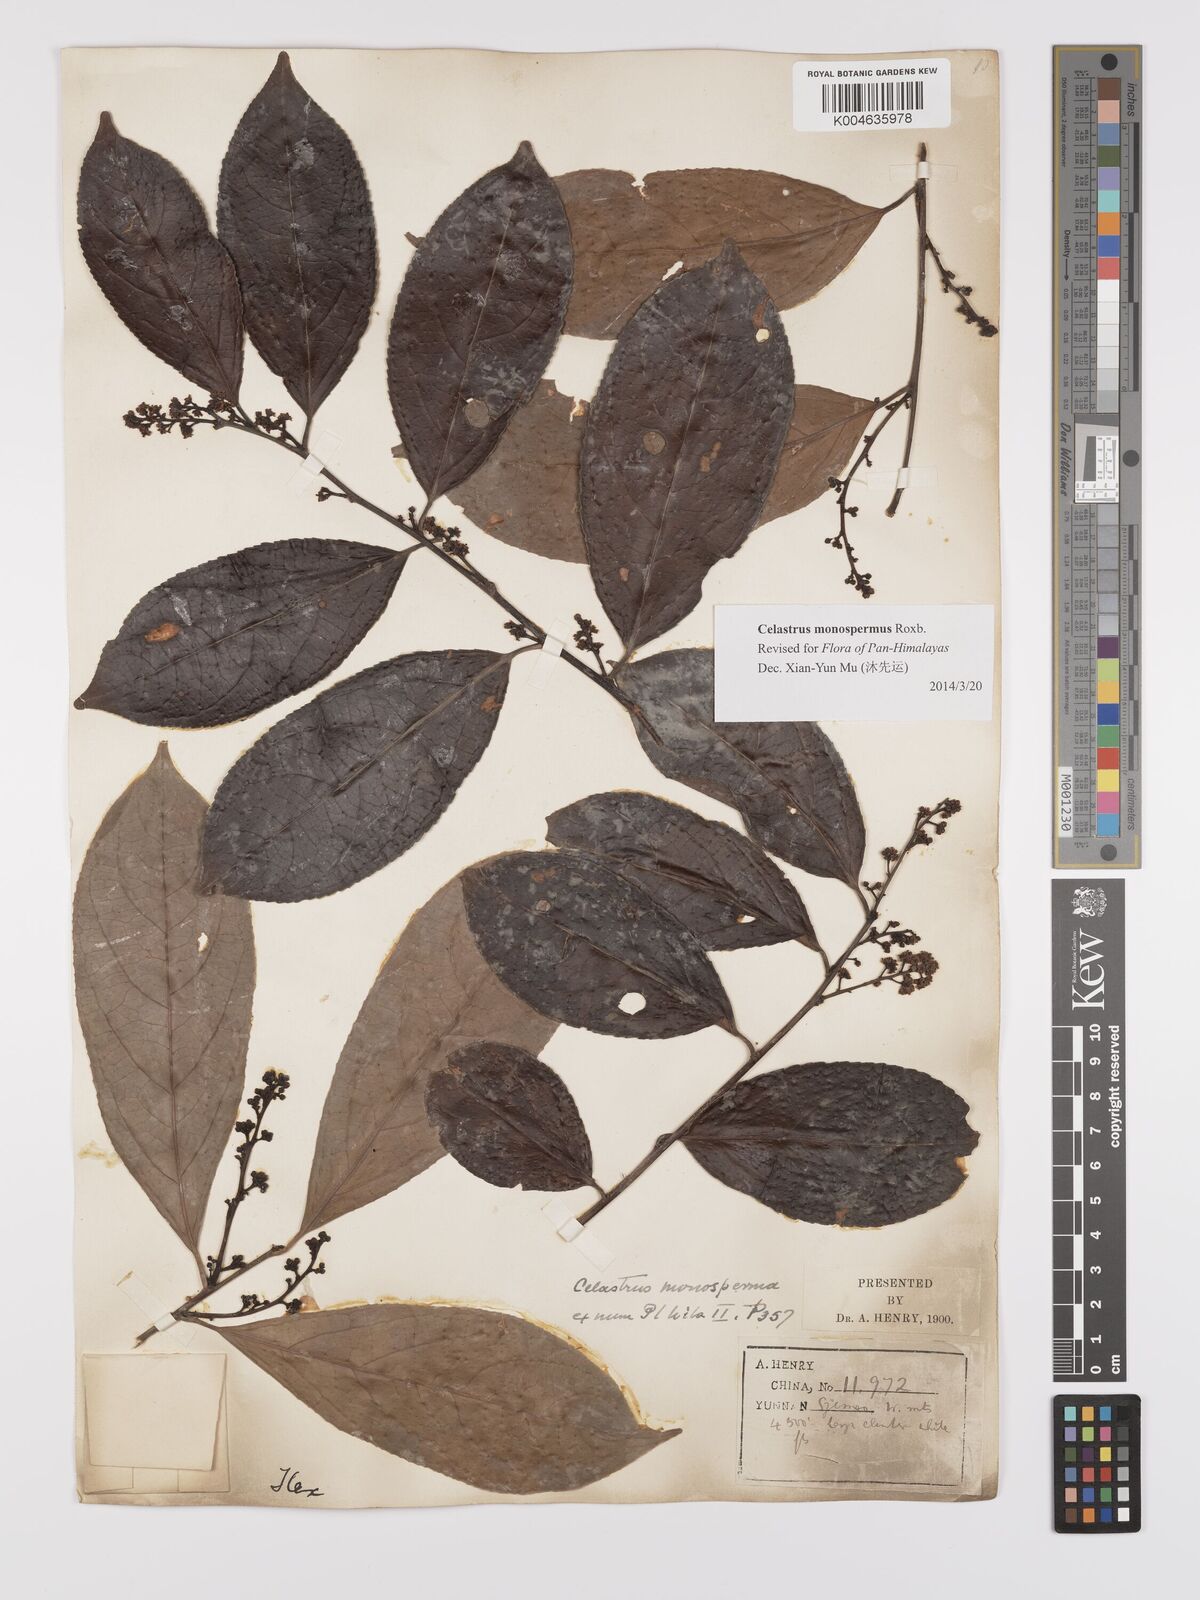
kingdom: Plantae
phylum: Tracheophyta
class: Magnoliopsida
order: Celastrales
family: Celastraceae
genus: Celastrus
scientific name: Celastrus monospermus
